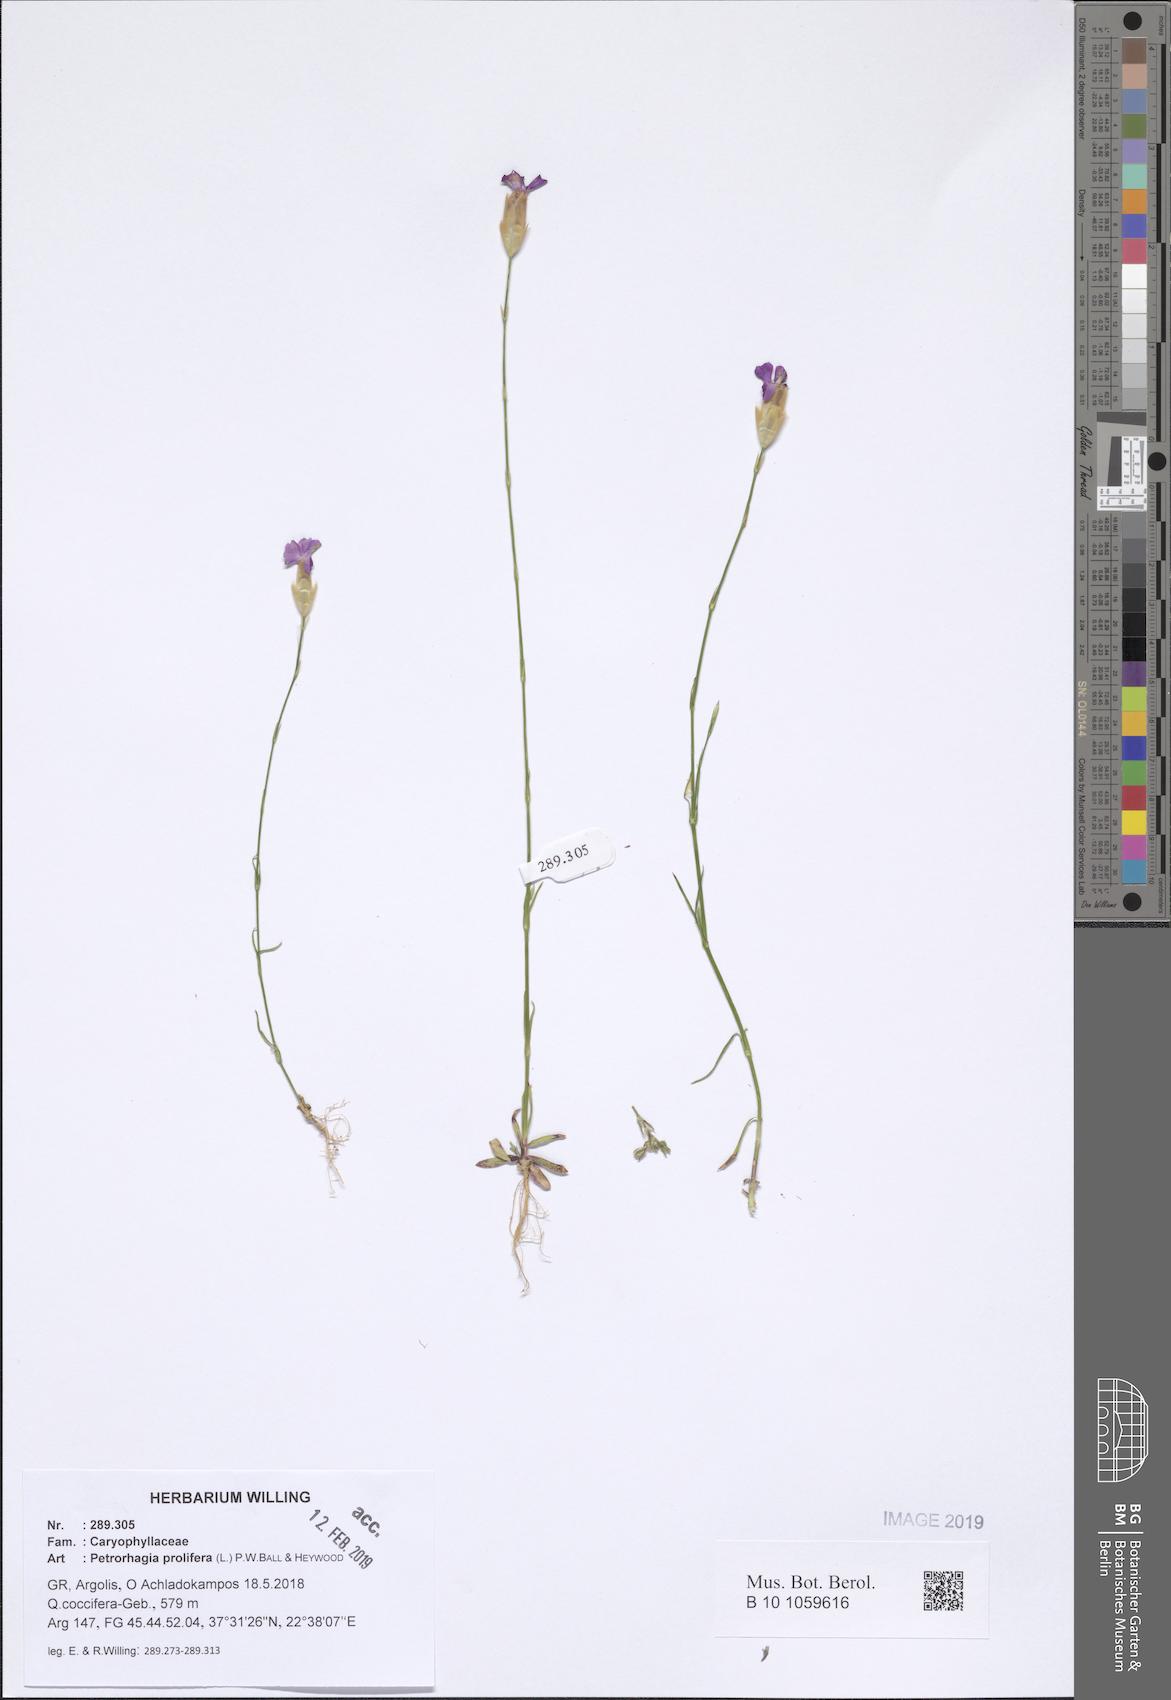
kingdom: Plantae
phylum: Tracheophyta
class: Magnoliopsida
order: Caryophyllales
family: Caryophyllaceae
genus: Petrorhagia
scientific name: Petrorhagia prolifera
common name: Proliferous pink
